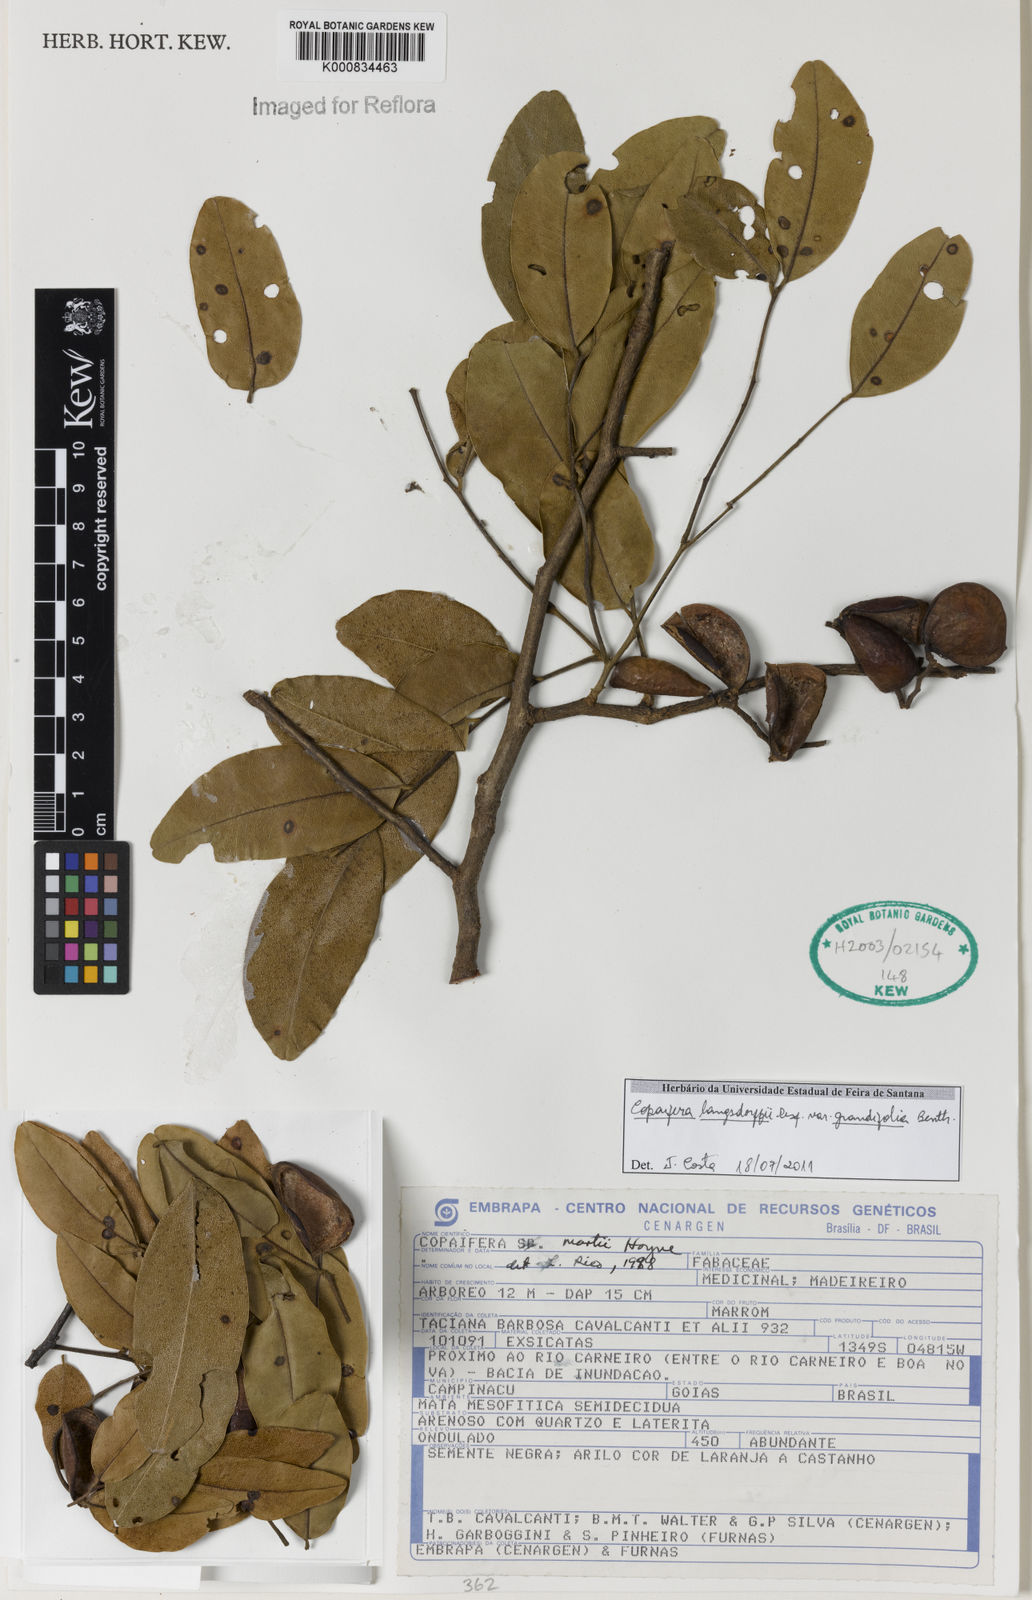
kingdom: Plantae
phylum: Tracheophyta
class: Magnoliopsida
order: Fabales
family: Fabaceae
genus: Copaifera
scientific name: Copaifera langsdorffii
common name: Brazilian diesel tree
